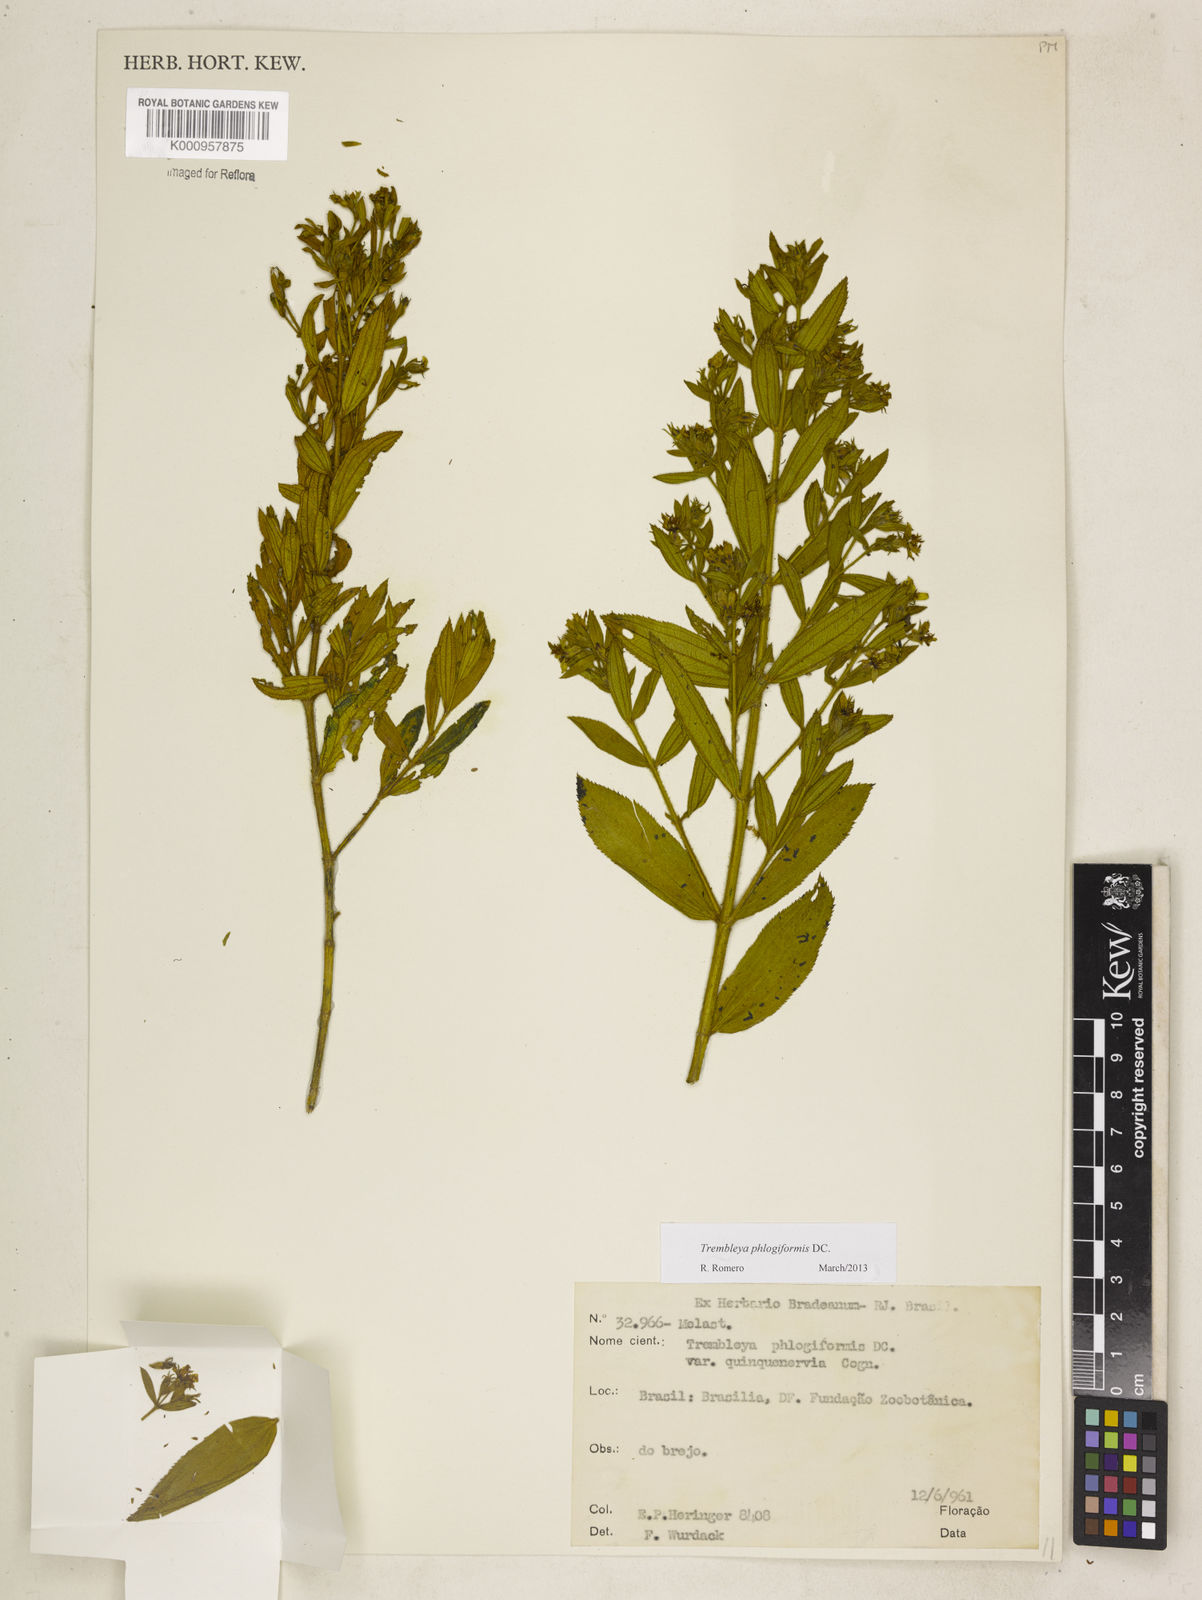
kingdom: Plantae
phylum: Tracheophyta
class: Magnoliopsida
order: Myrtales
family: Melastomataceae
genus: Microlicia
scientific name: Microlicia phlogiformis
